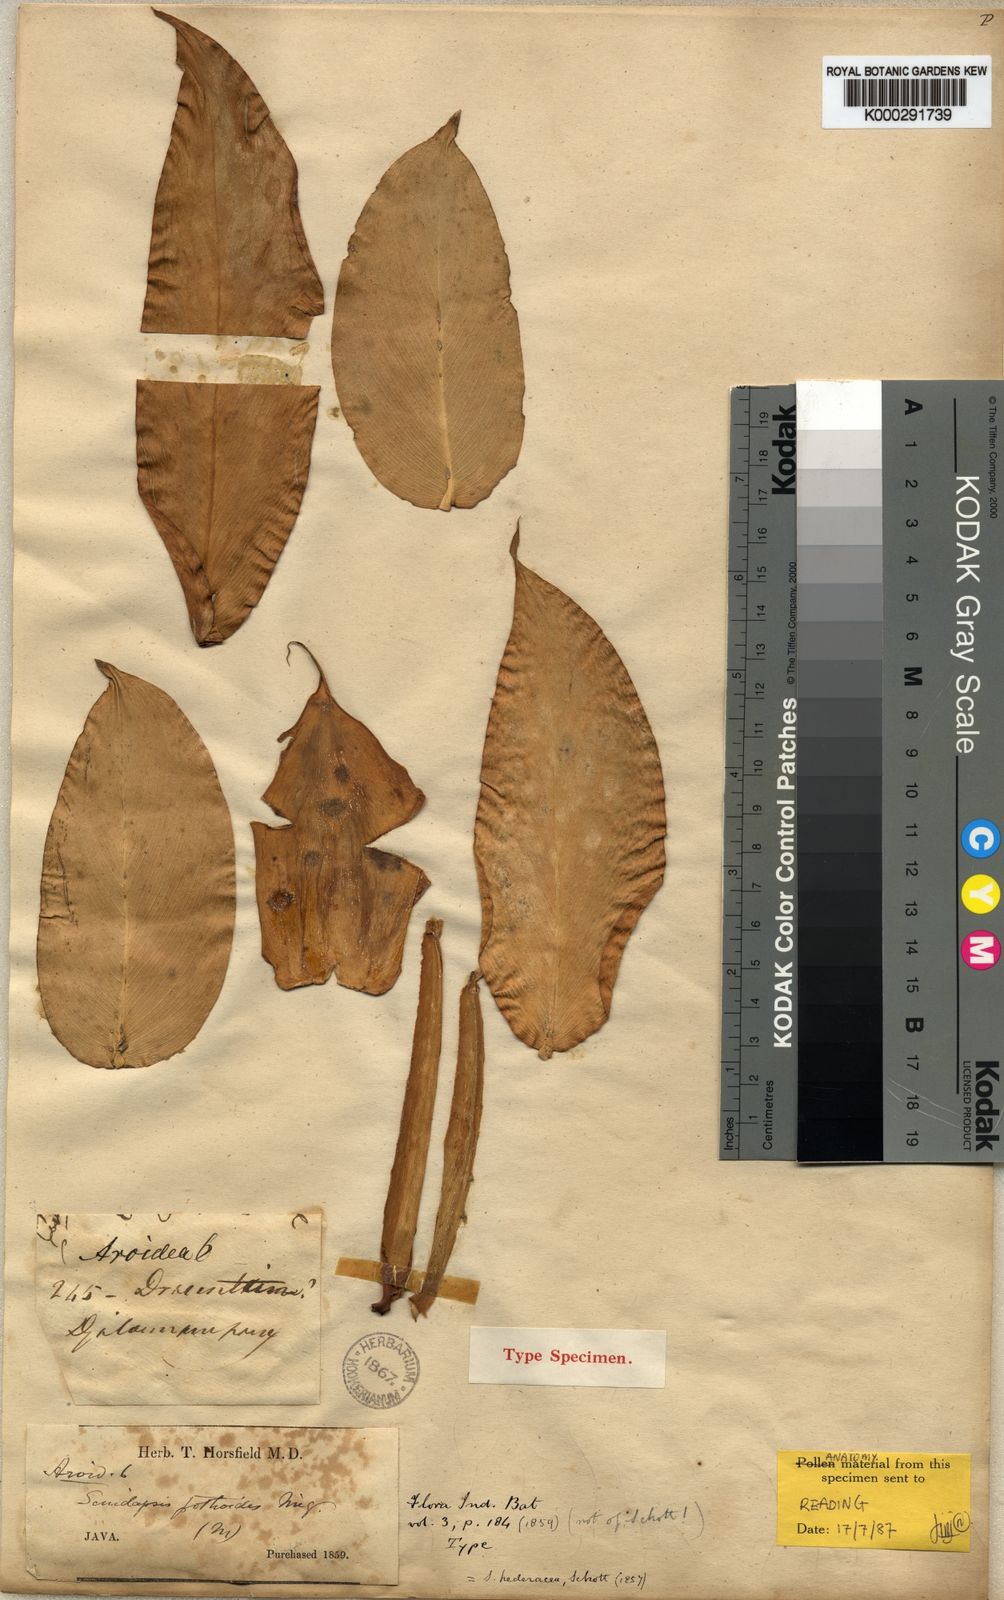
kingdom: Plantae
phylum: Tracheophyta
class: Liliopsida
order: Alismatales
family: Araceae
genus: Scindapsus
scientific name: Scindapsus
